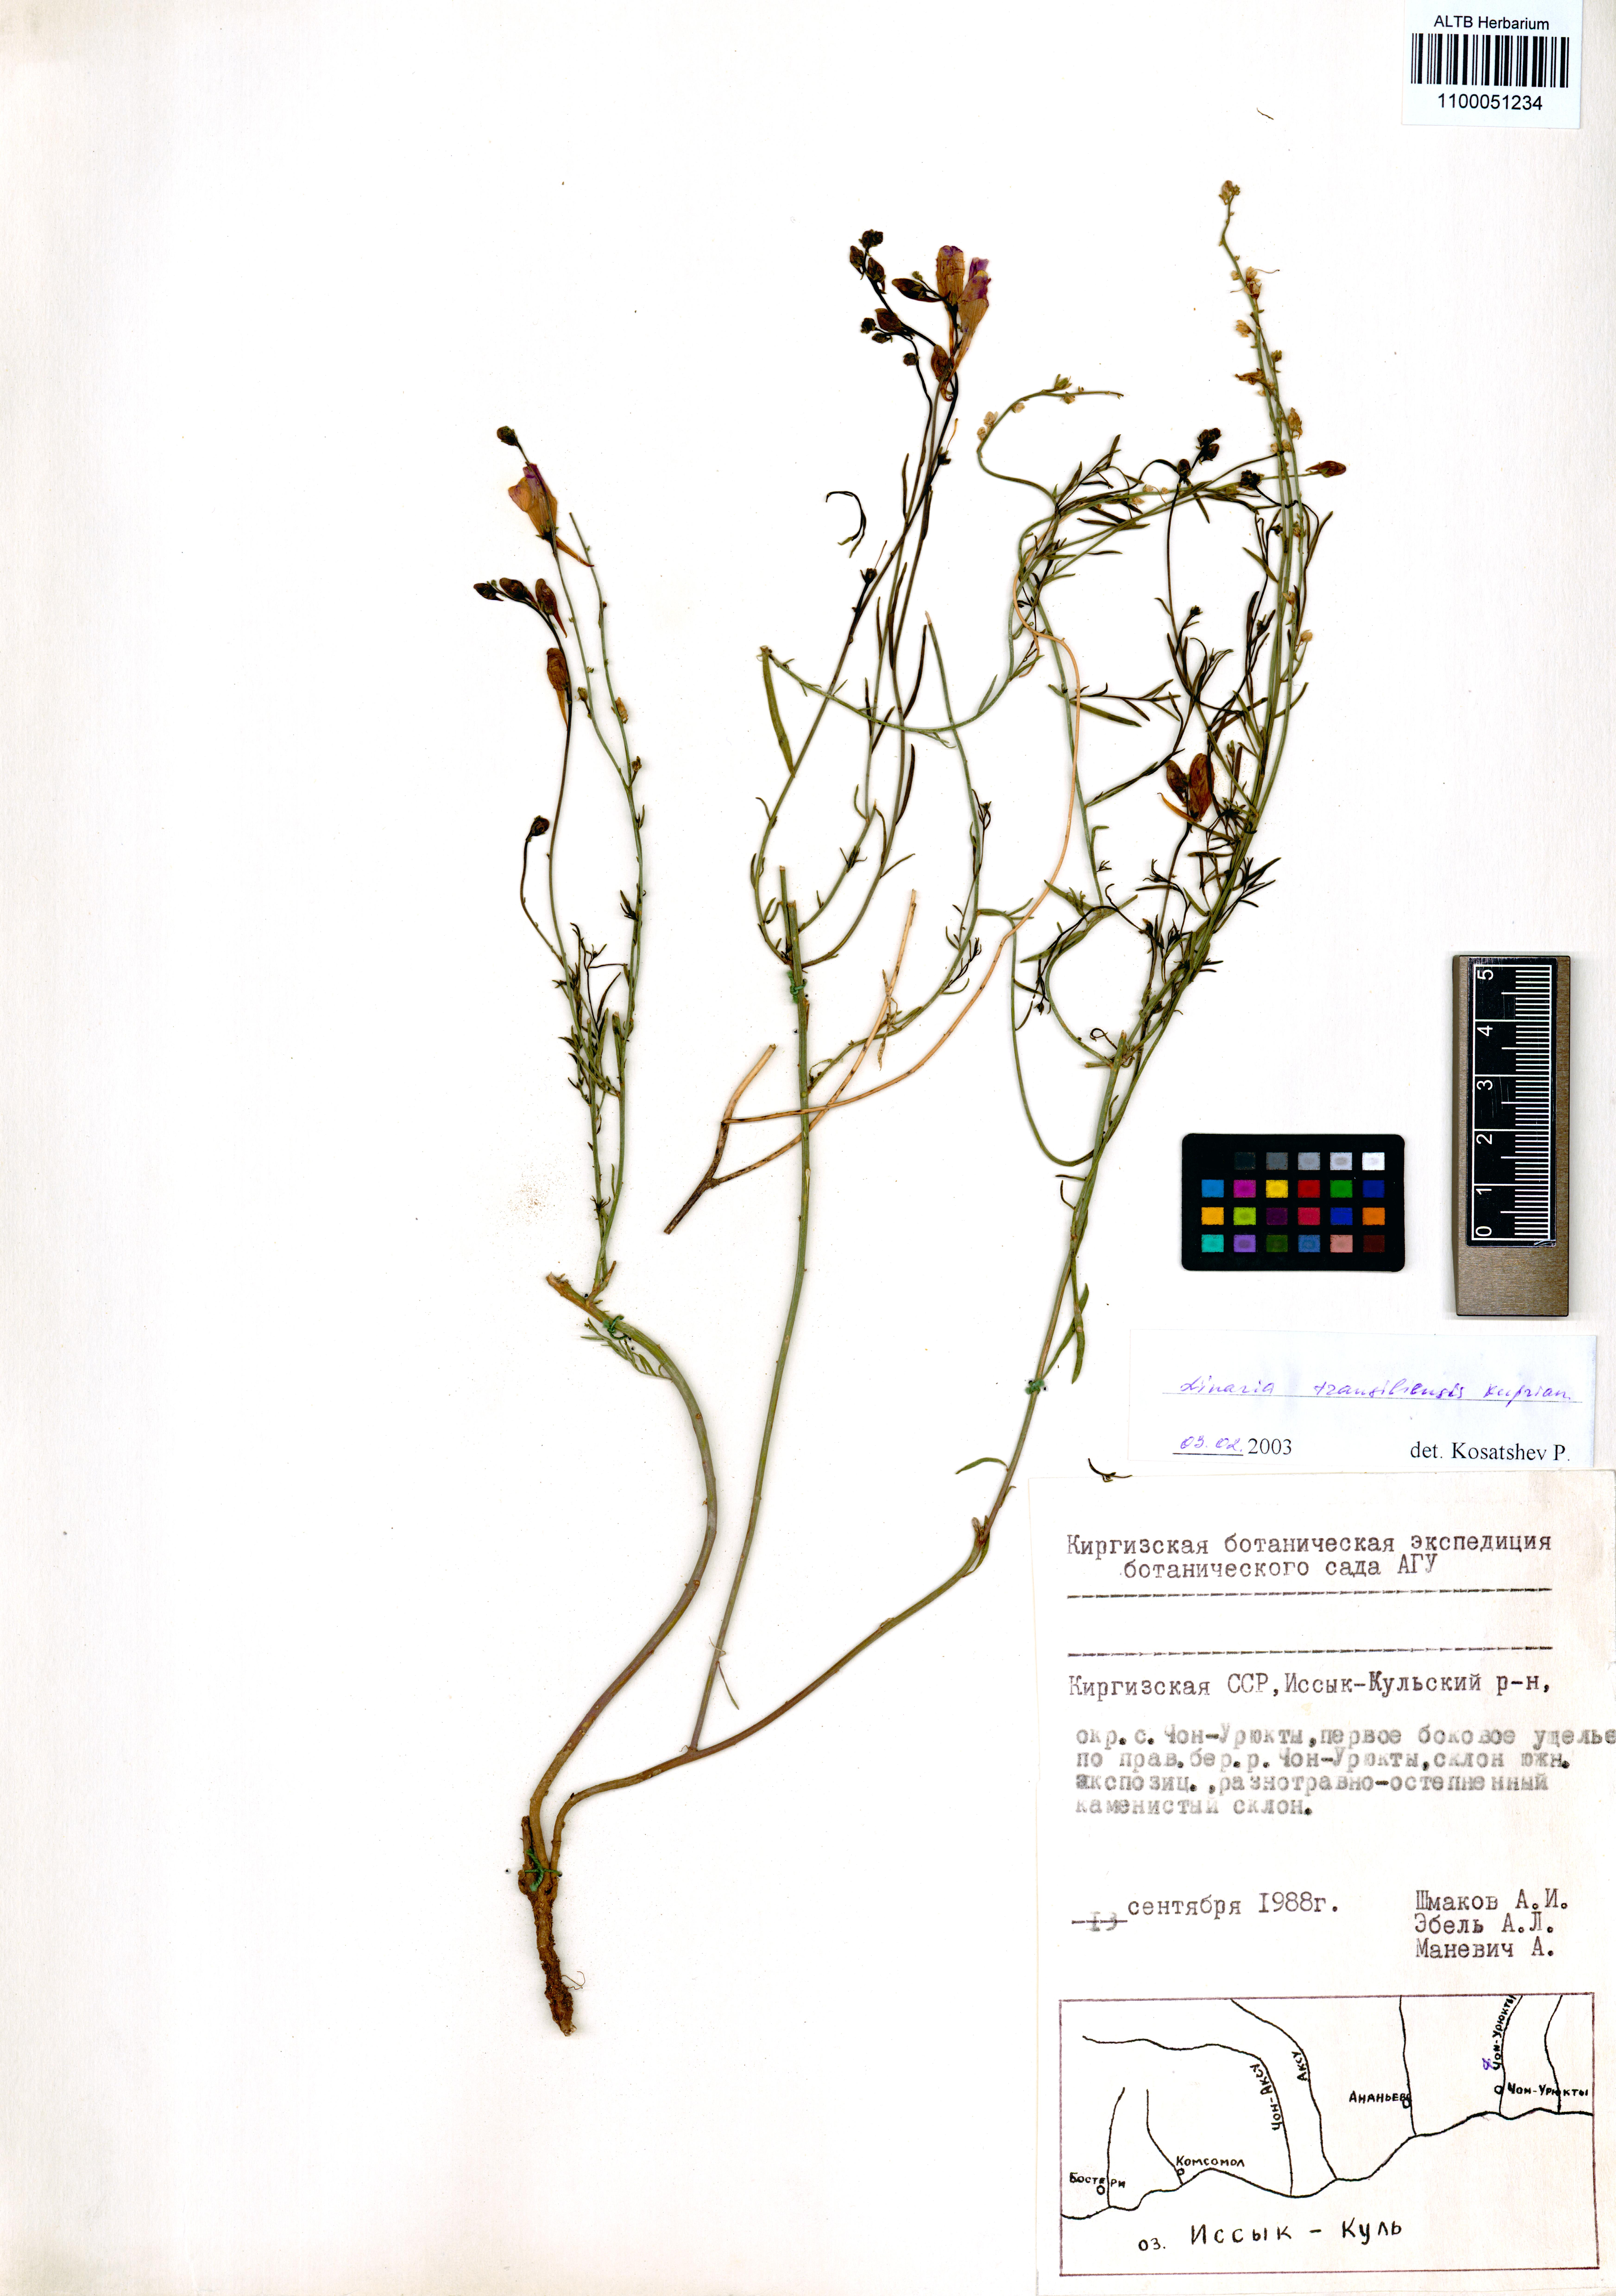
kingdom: Plantae
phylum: Tracheophyta
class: Magnoliopsida
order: Lamiales
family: Plantaginaceae
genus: Linaria
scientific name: Linaria bungei
